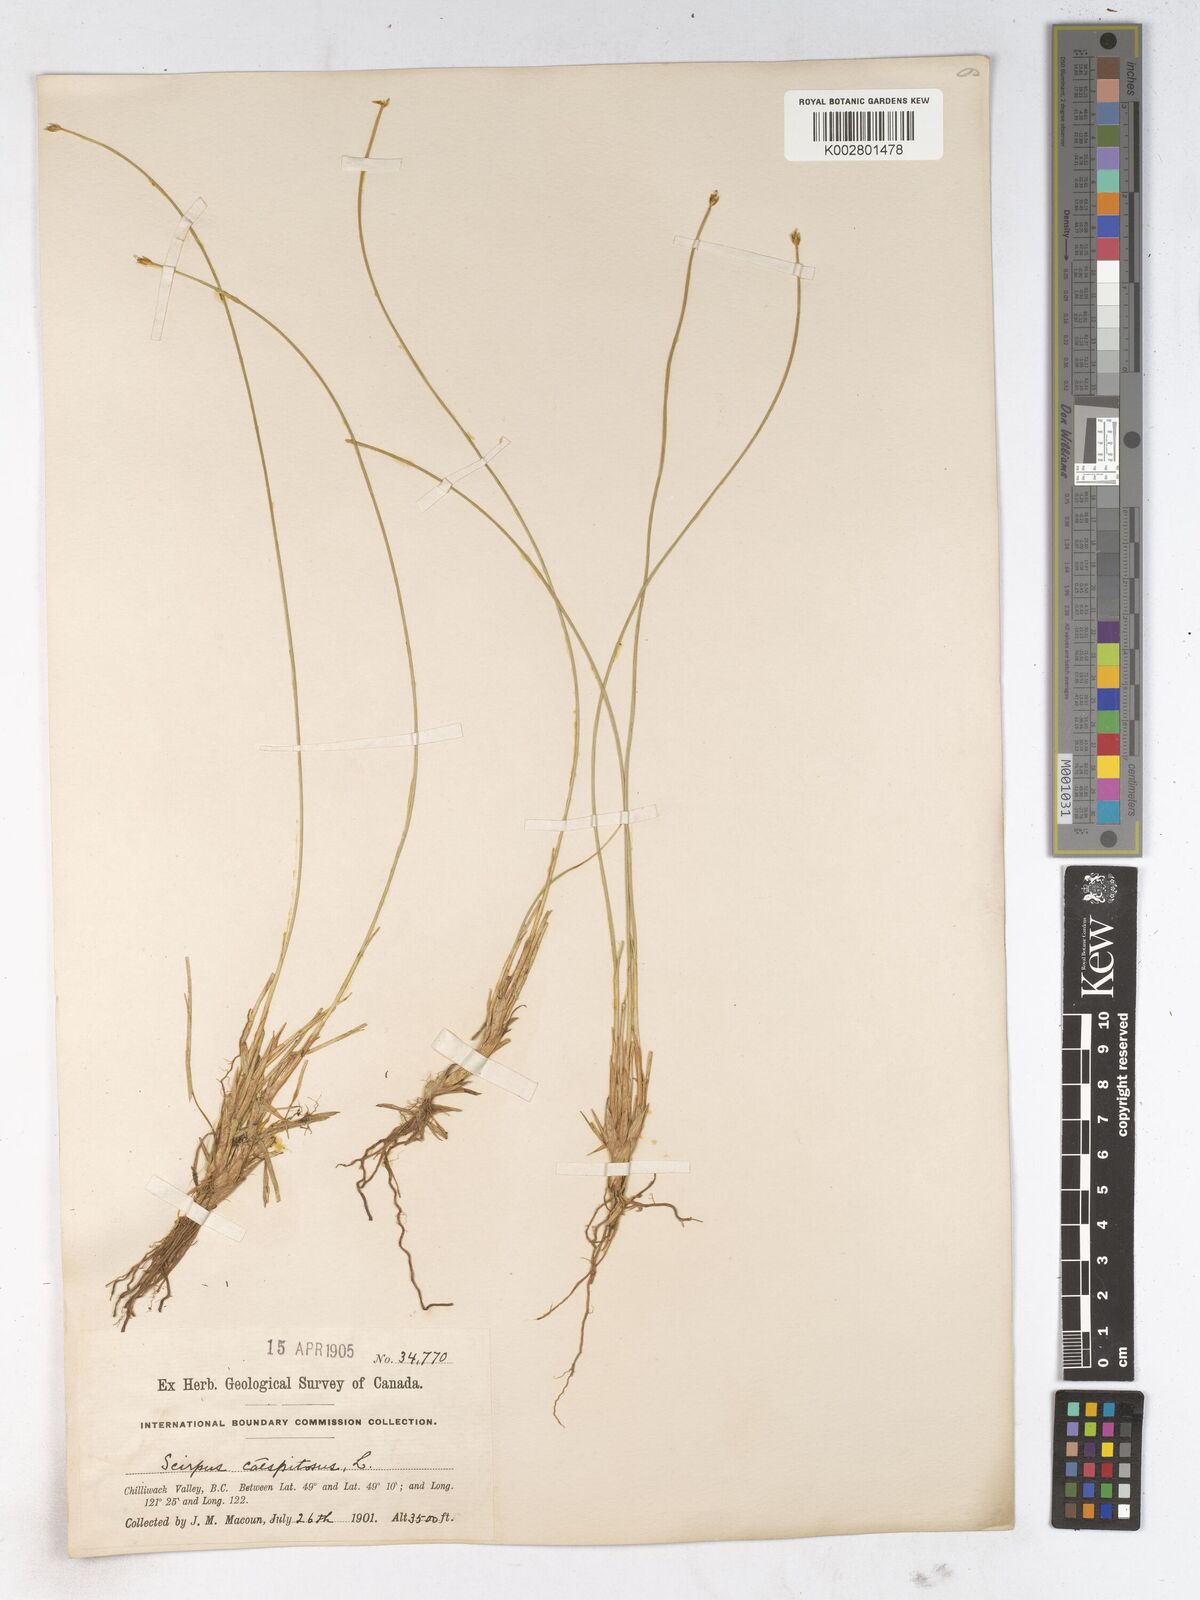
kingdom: Plantae
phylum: Tracheophyta
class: Liliopsida
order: Poales
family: Cyperaceae
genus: Trichophorum
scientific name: Trichophorum cespitosum
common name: Cespitose bulrush
